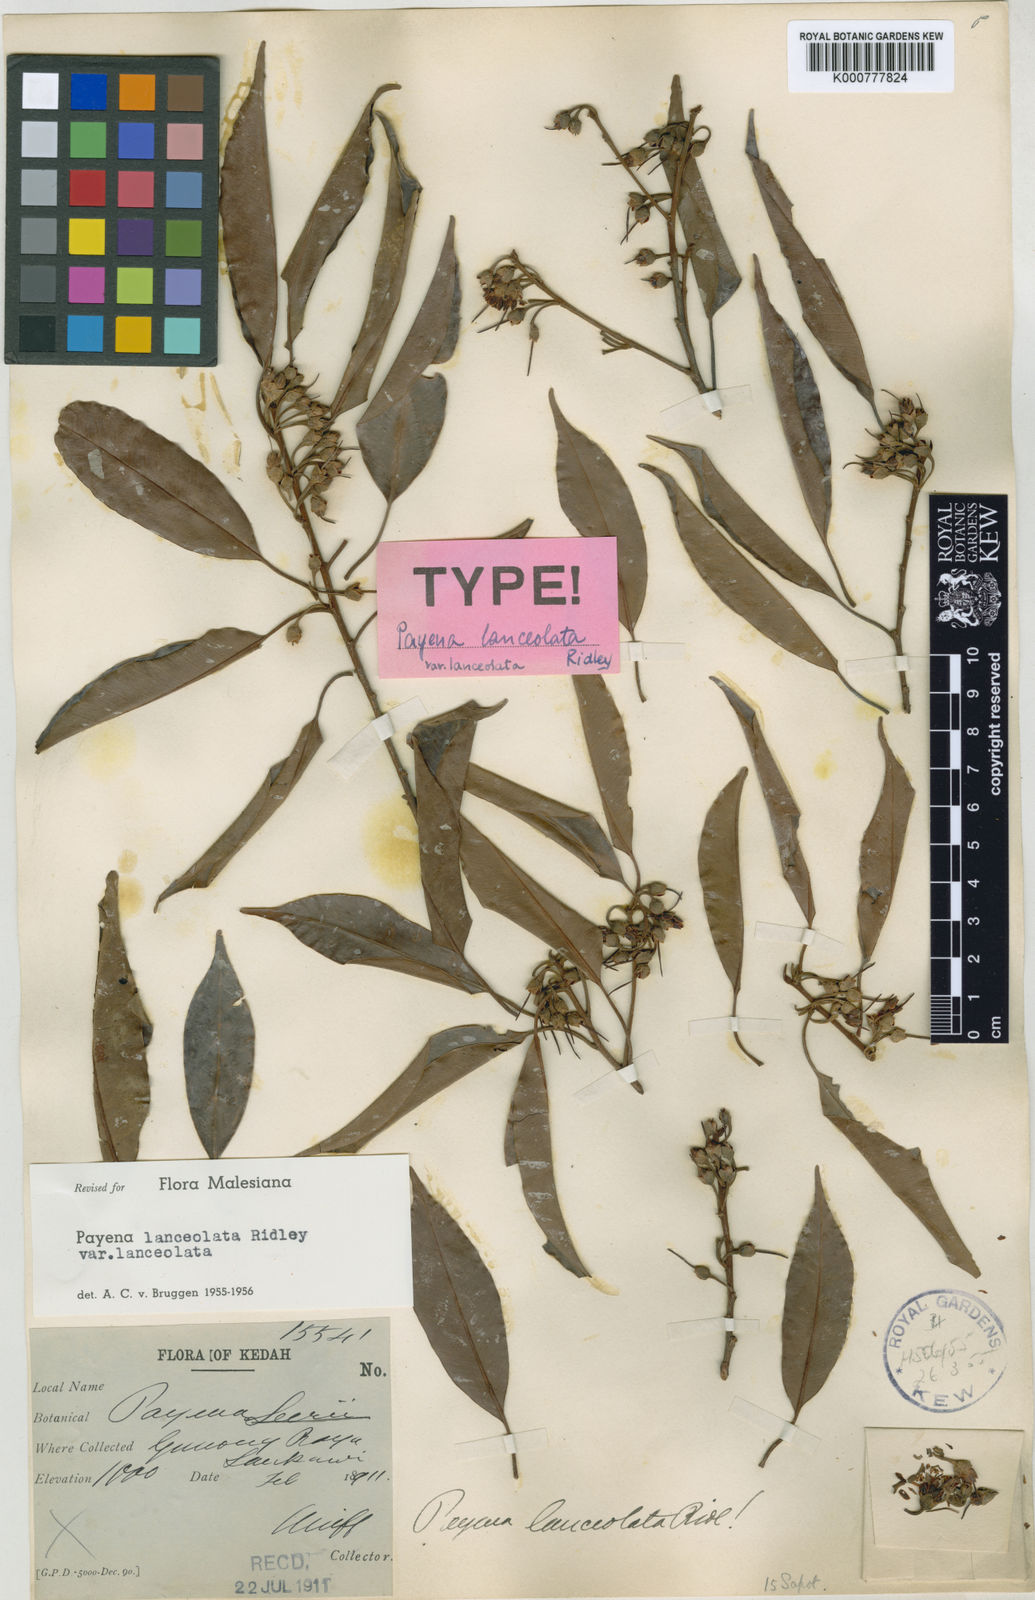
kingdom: Plantae
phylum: Tracheophyta
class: Magnoliopsida
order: Ericales
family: Sapotaceae
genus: Payena
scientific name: Payena asiatica
